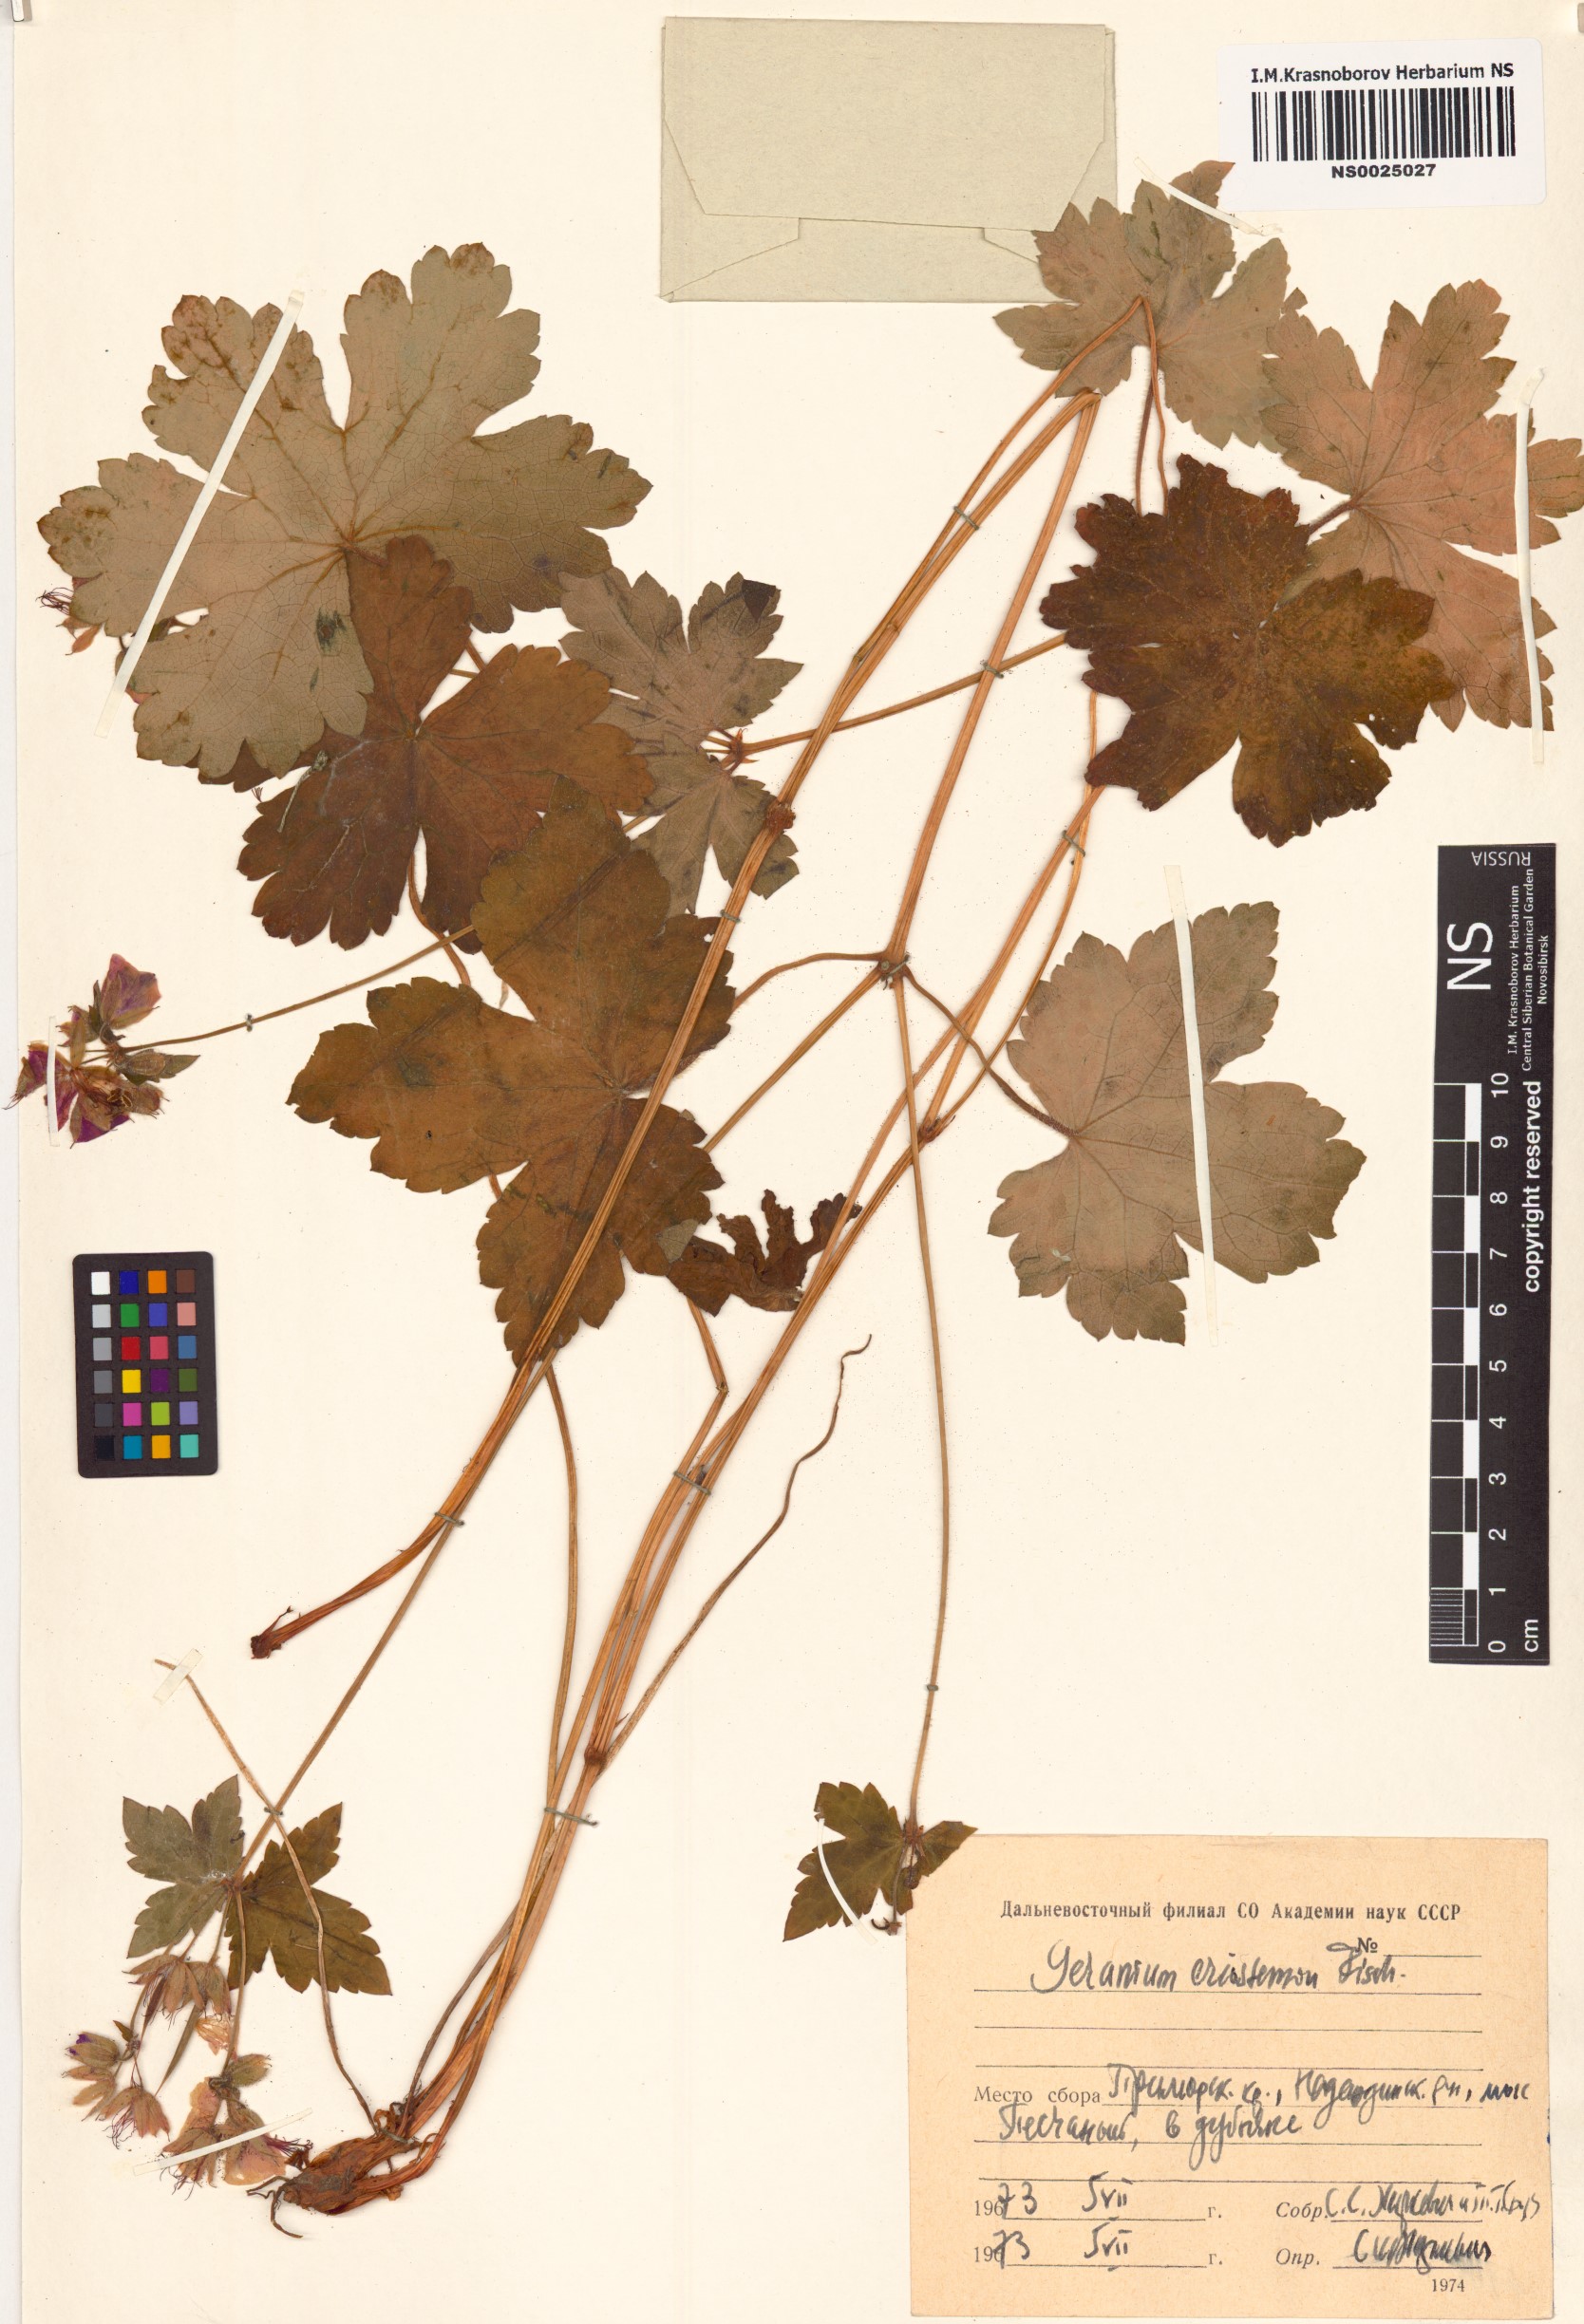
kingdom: Plantae
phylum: Tracheophyta
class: Magnoliopsida
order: Geraniales
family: Geraniaceae
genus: Geranium
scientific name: Geranium platyanthum
